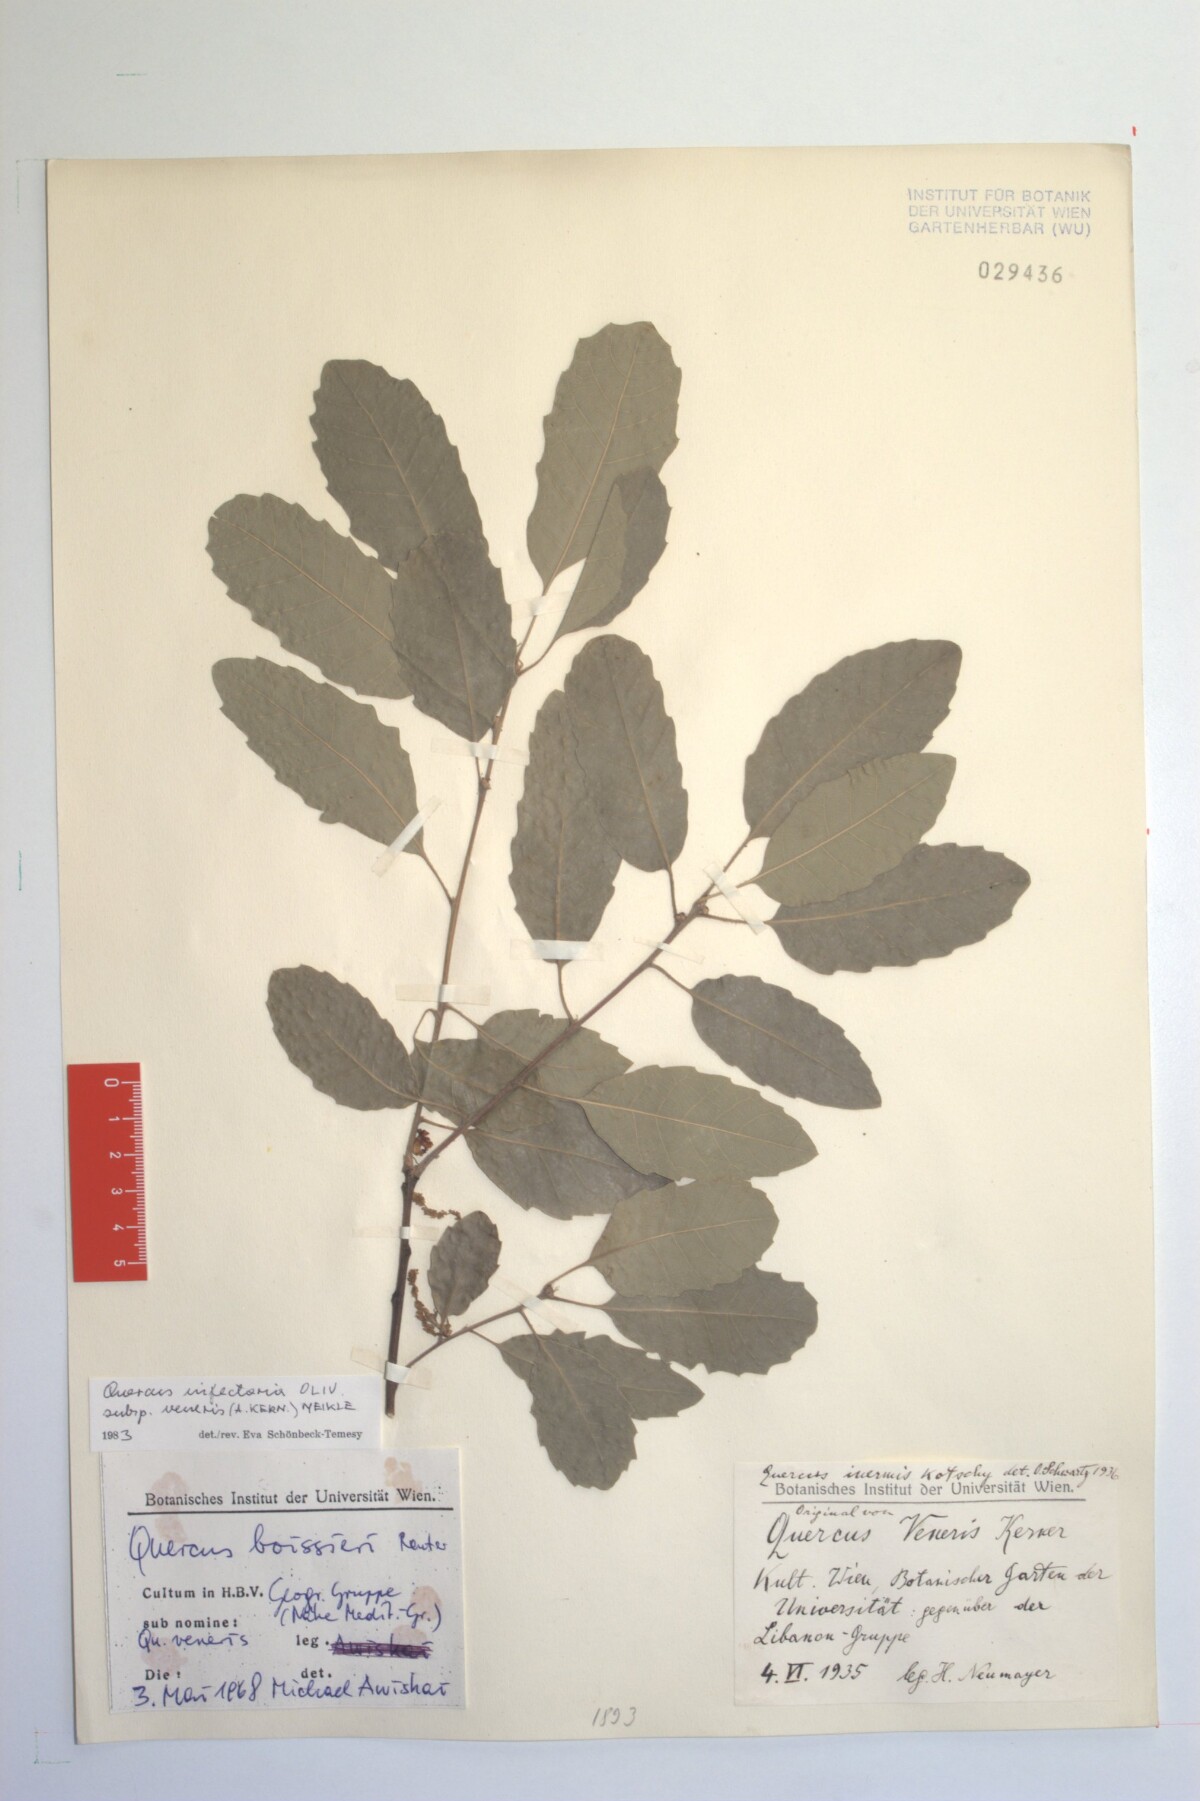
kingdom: Plantae
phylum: Tracheophyta
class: Magnoliopsida
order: Fagales
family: Fagaceae
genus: Quercus
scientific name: Quercus infectoria
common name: Aleppo oak
